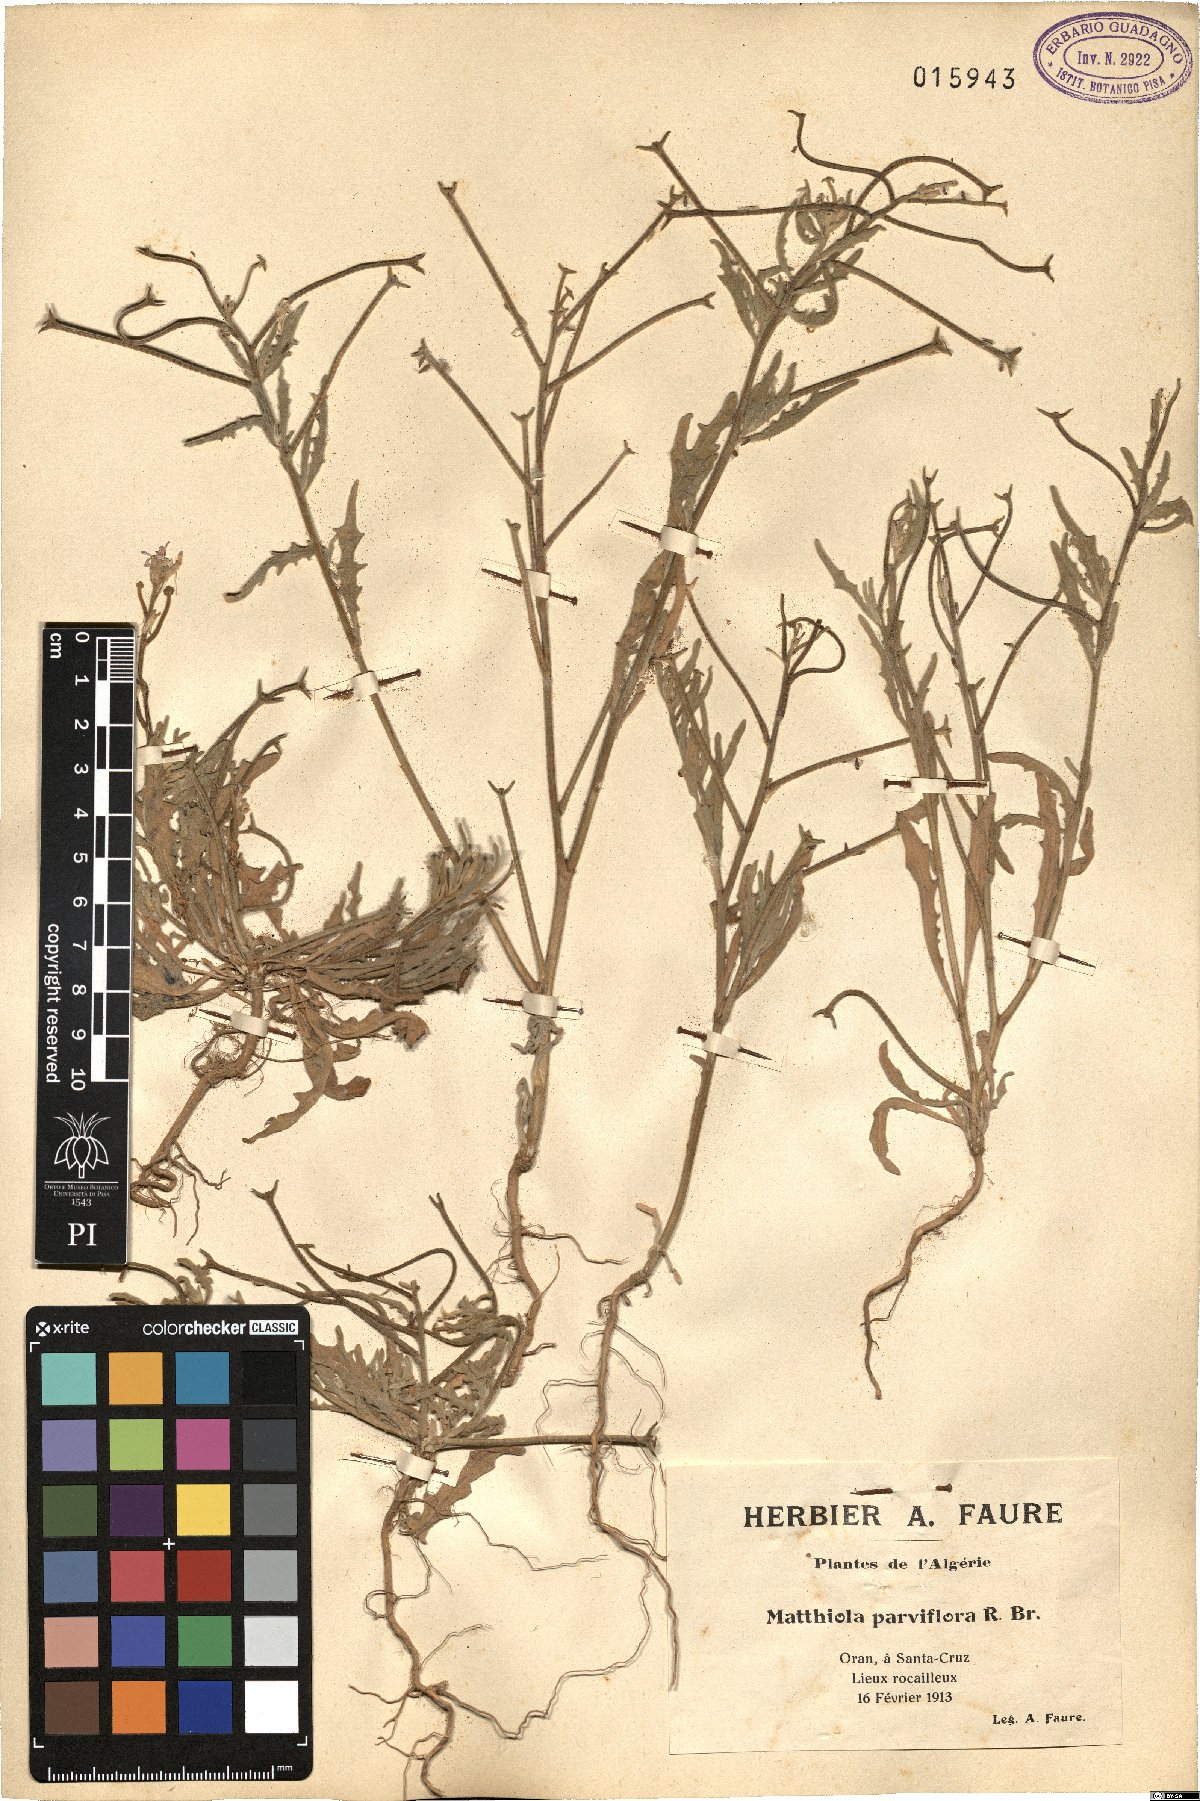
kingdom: Plantae
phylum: Tracheophyta
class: Magnoliopsida
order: Brassicales
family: Brassicaceae
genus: Matthiola
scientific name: Matthiola parviflora
